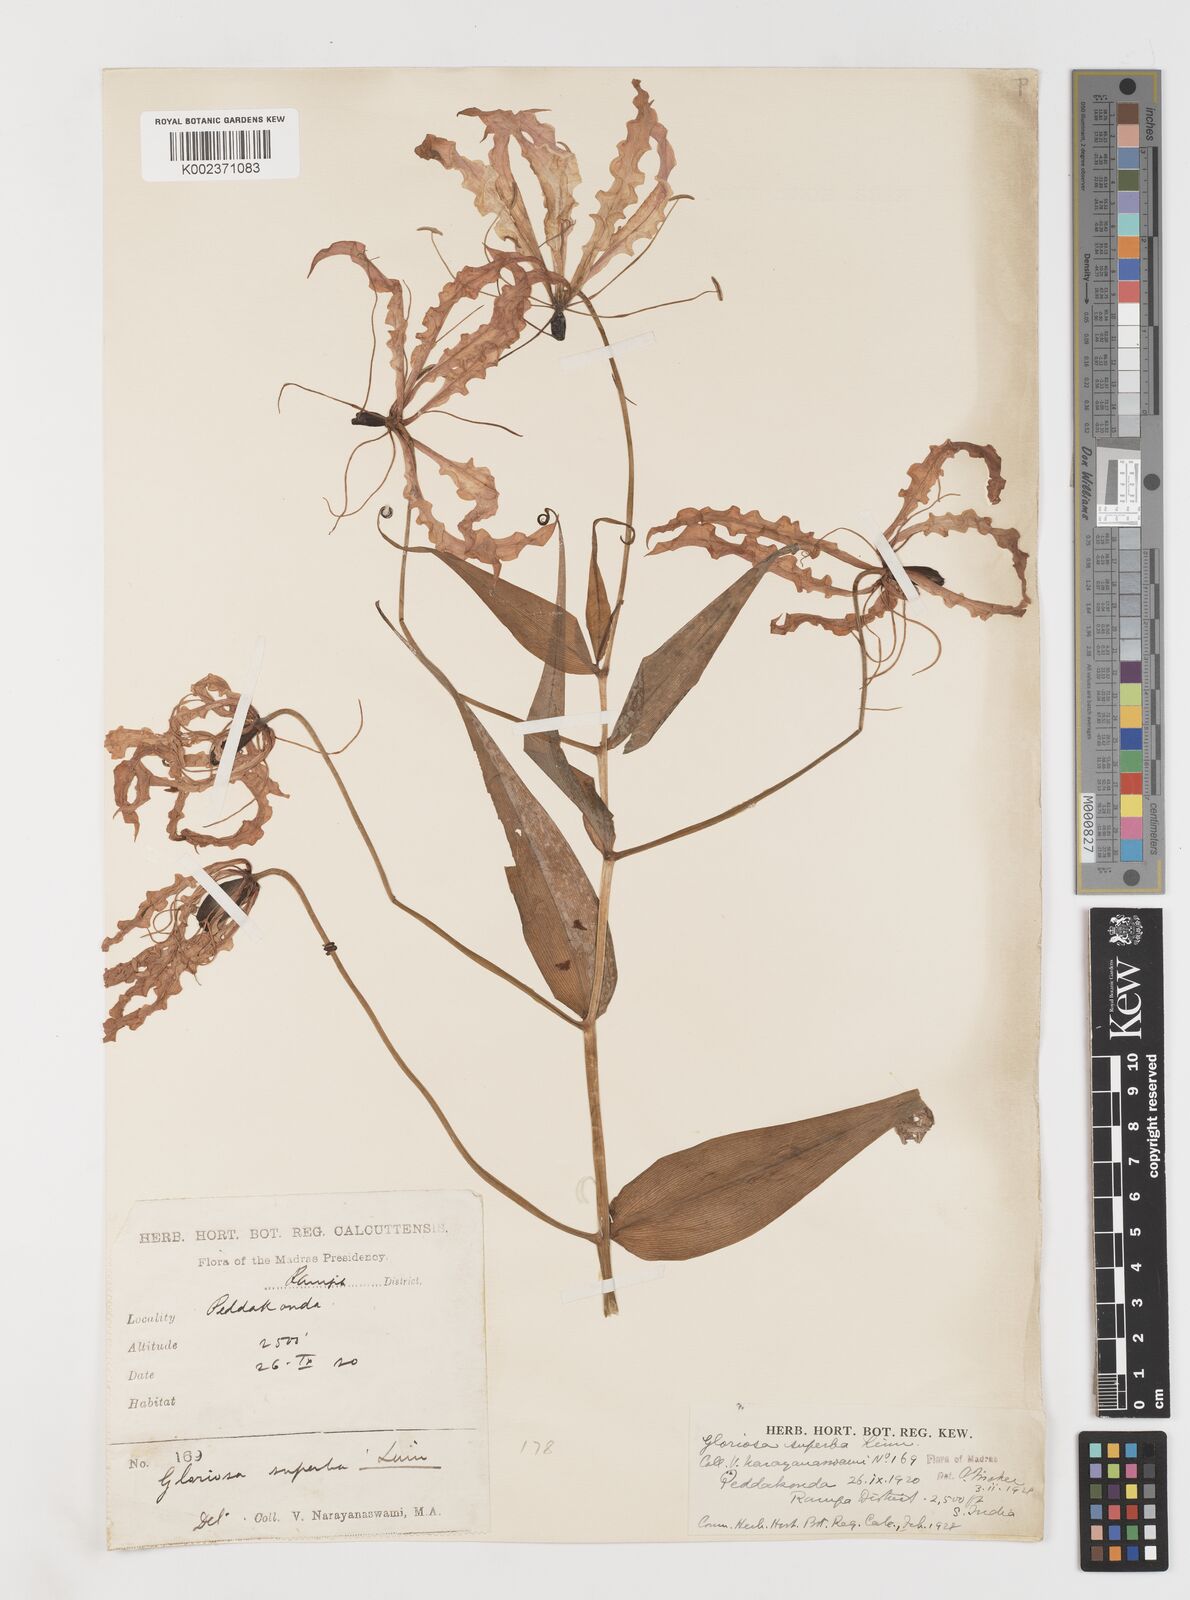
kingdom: Plantae
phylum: Tracheophyta
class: Liliopsida
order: Liliales
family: Colchicaceae
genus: Gloriosa
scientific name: Gloriosa superba
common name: Flame lily
